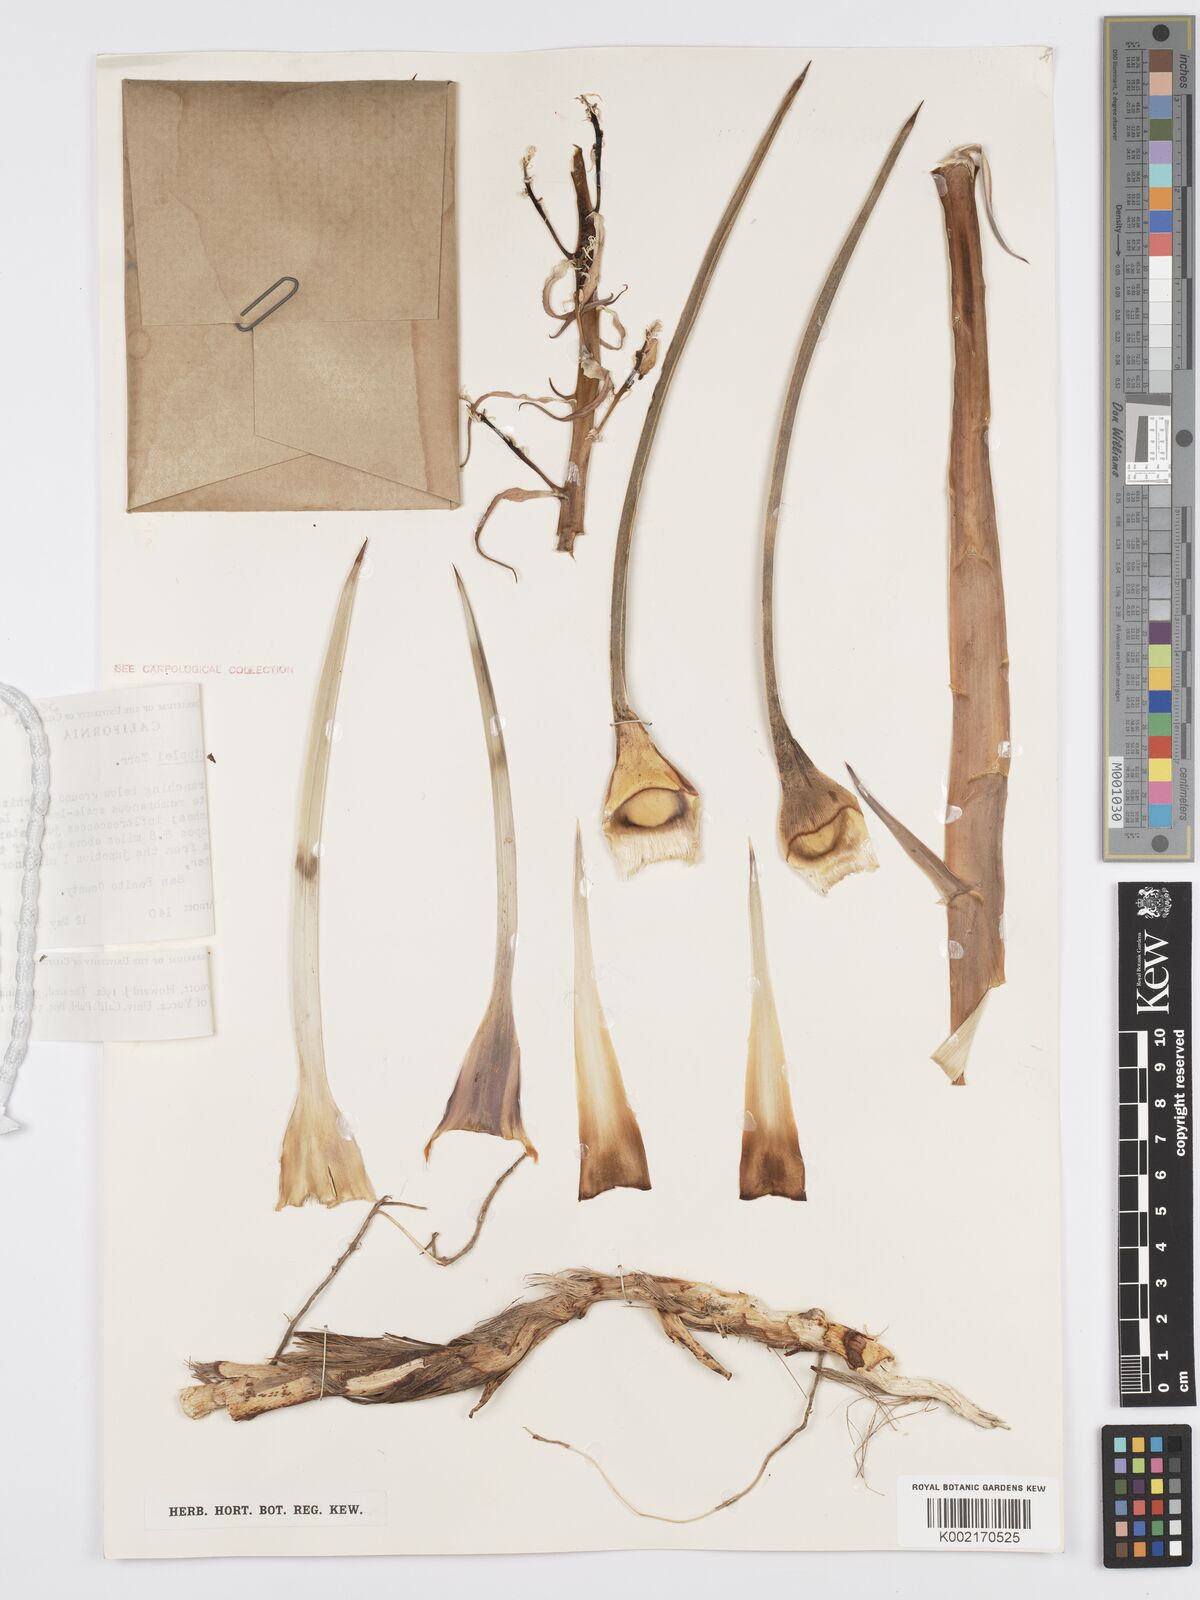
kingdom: Plantae
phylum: Tracheophyta
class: Liliopsida
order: Asparagales
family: Asparagaceae
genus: Hesperoyucca
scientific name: Hesperoyucca whipplei
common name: Our lord's-candle
